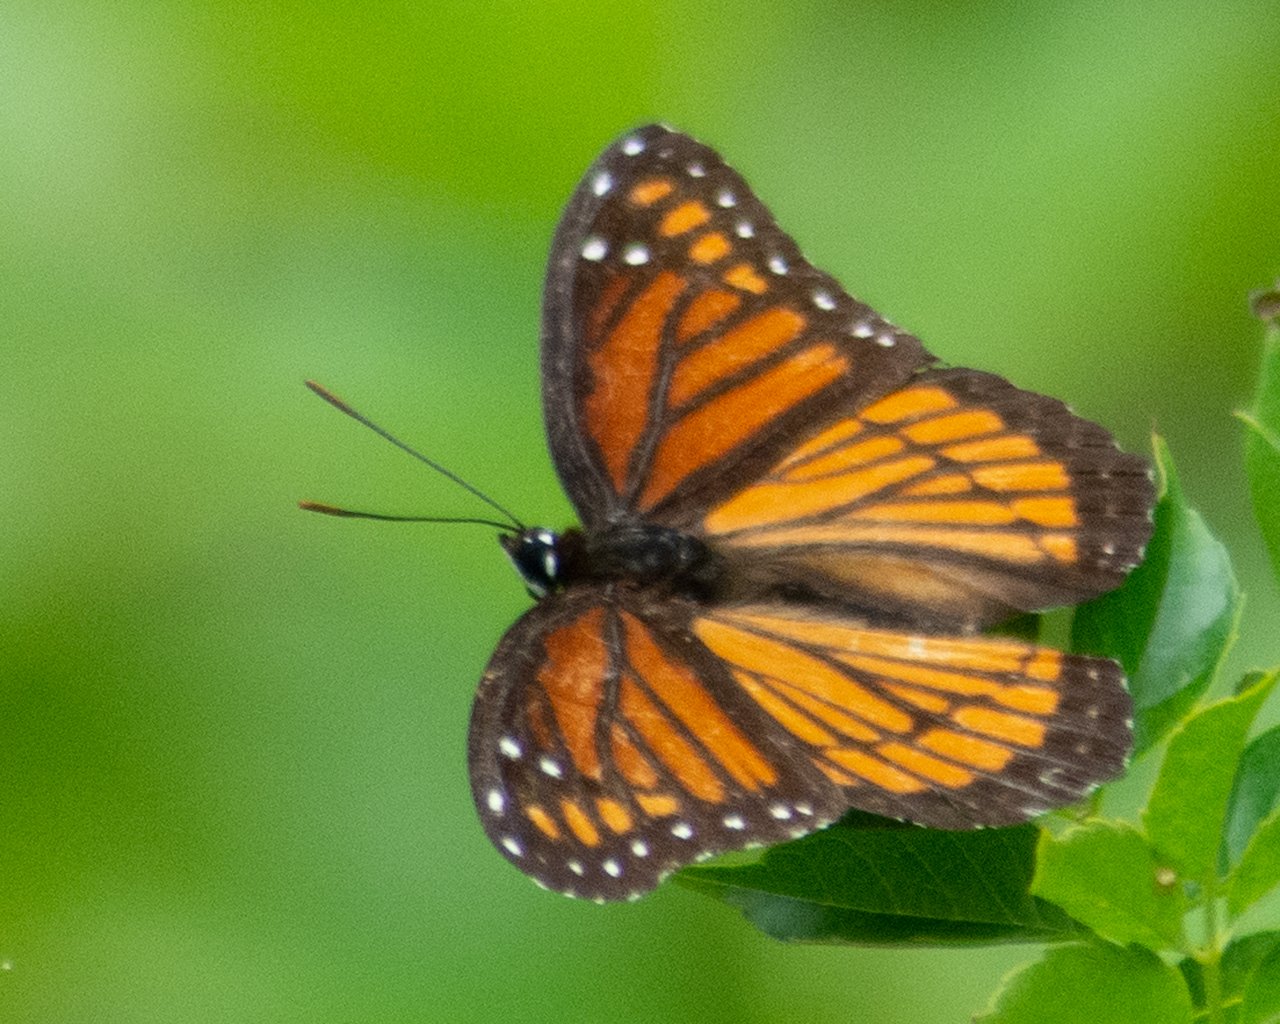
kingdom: Animalia
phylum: Arthropoda
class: Insecta
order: Lepidoptera
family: Nymphalidae
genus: Limenitis
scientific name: Limenitis archippus
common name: Viceroy
